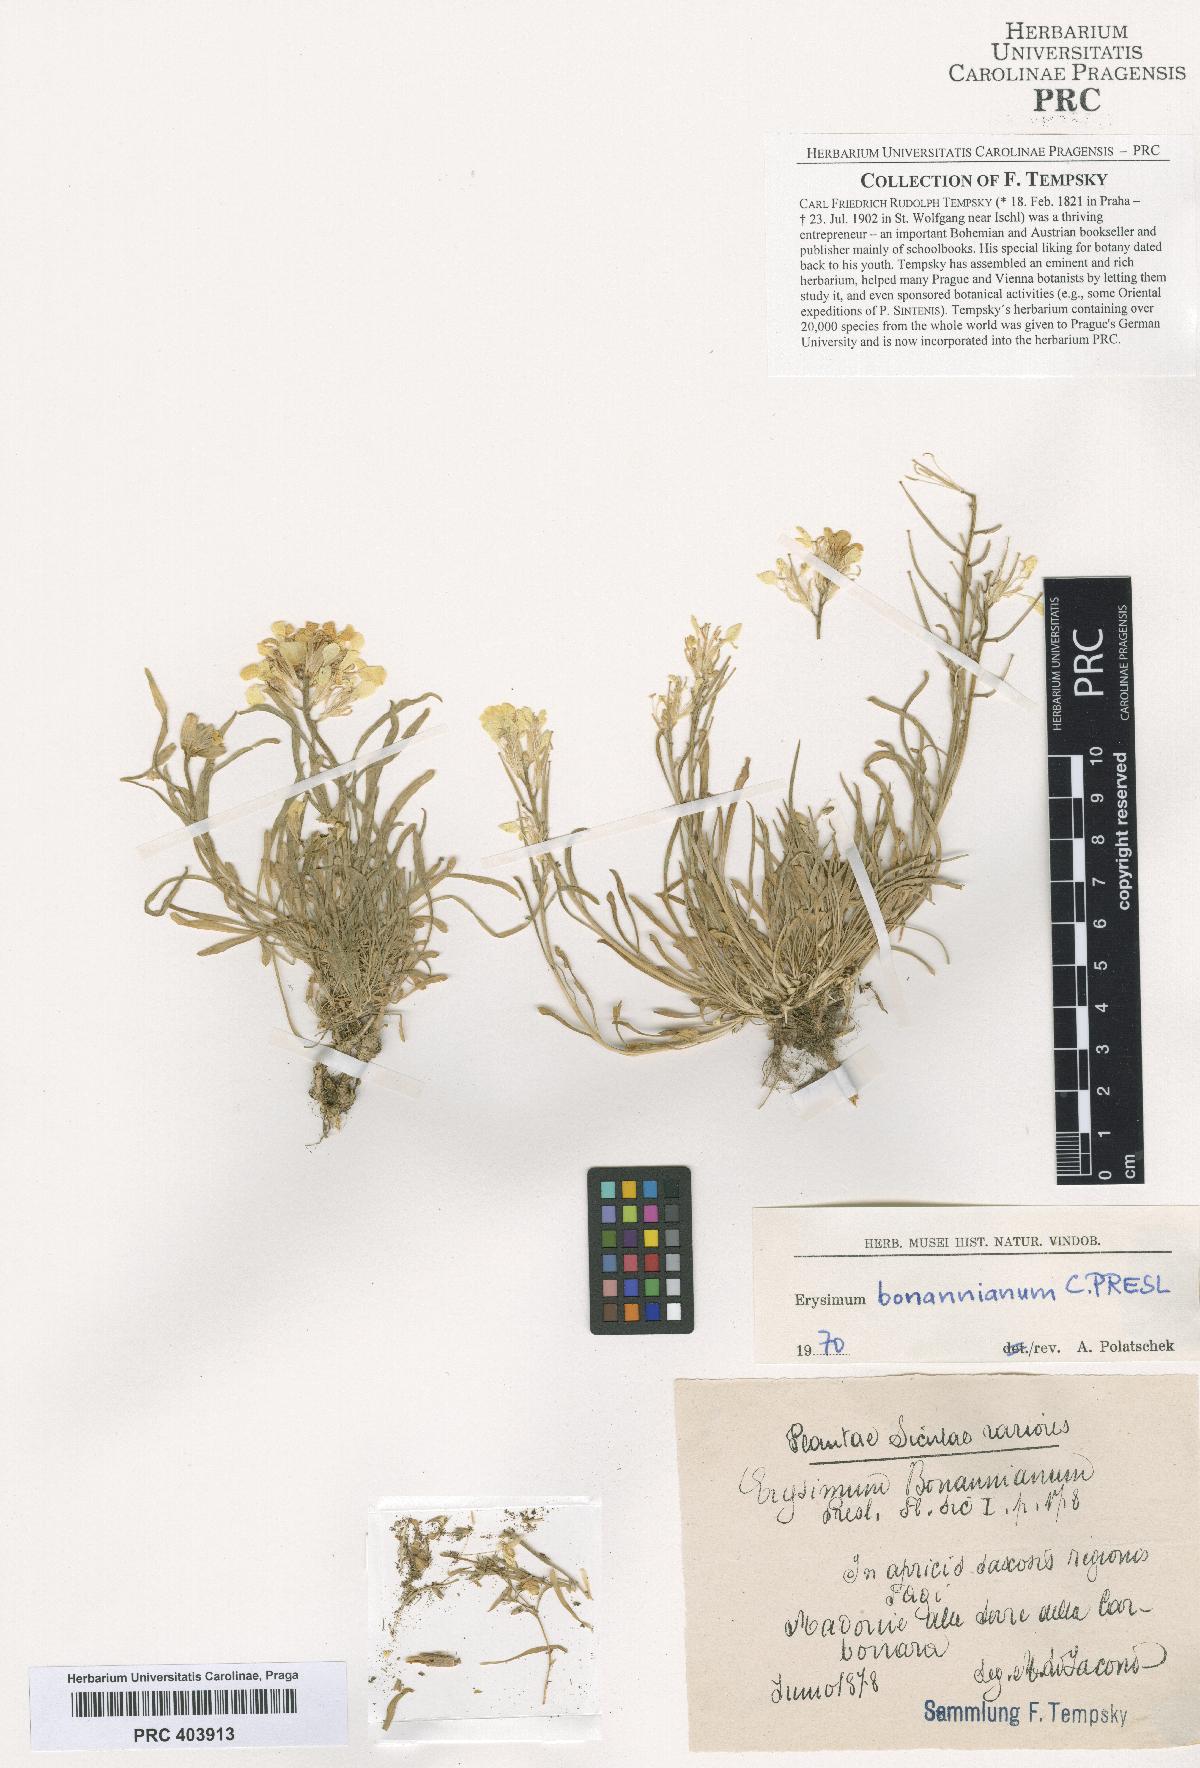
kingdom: Plantae
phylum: Tracheophyta
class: Magnoliopsida
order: Brassicales
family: Brassicaceae
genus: Erysimum
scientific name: Erysimum bonannianum
